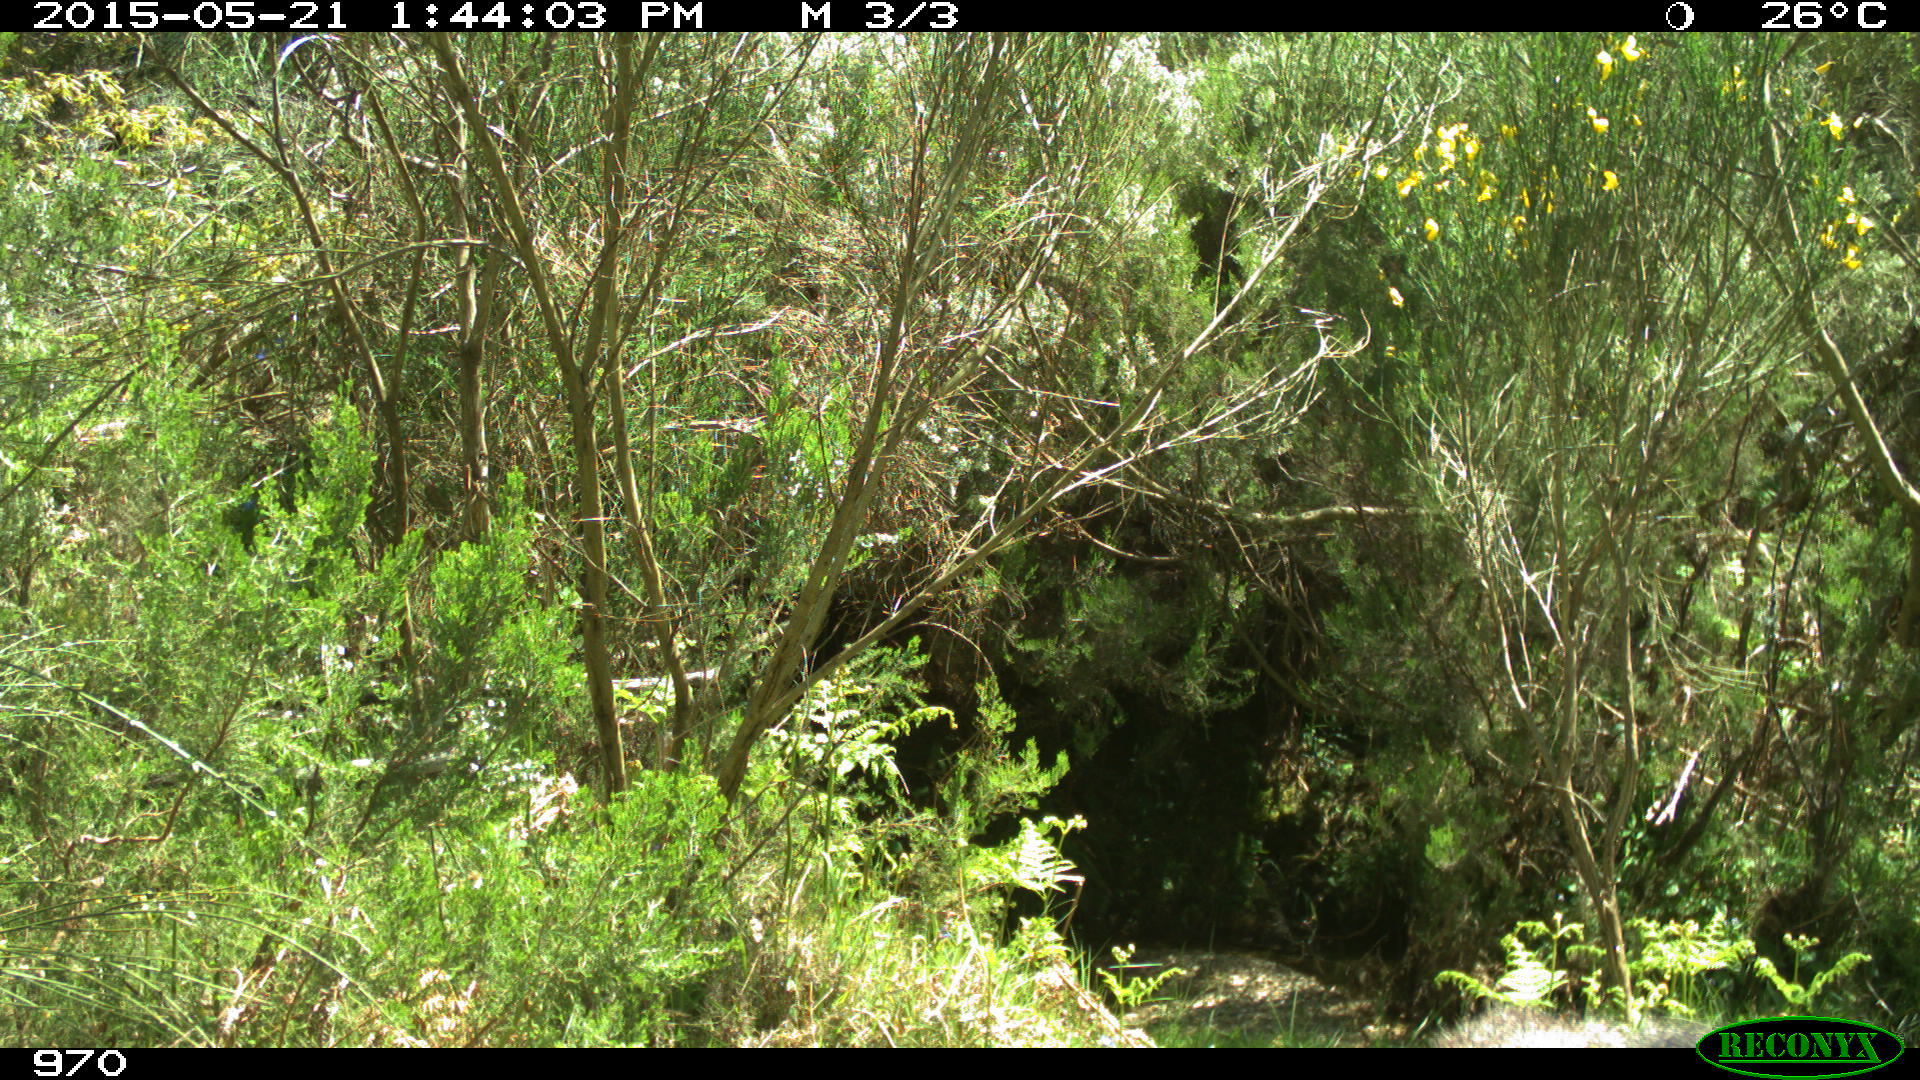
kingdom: Animalia
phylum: Chordata
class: Mammalia
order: Artiodactyla
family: Cervidae
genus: Capreolus
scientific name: Capreolus capreolus
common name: Western roe deer
